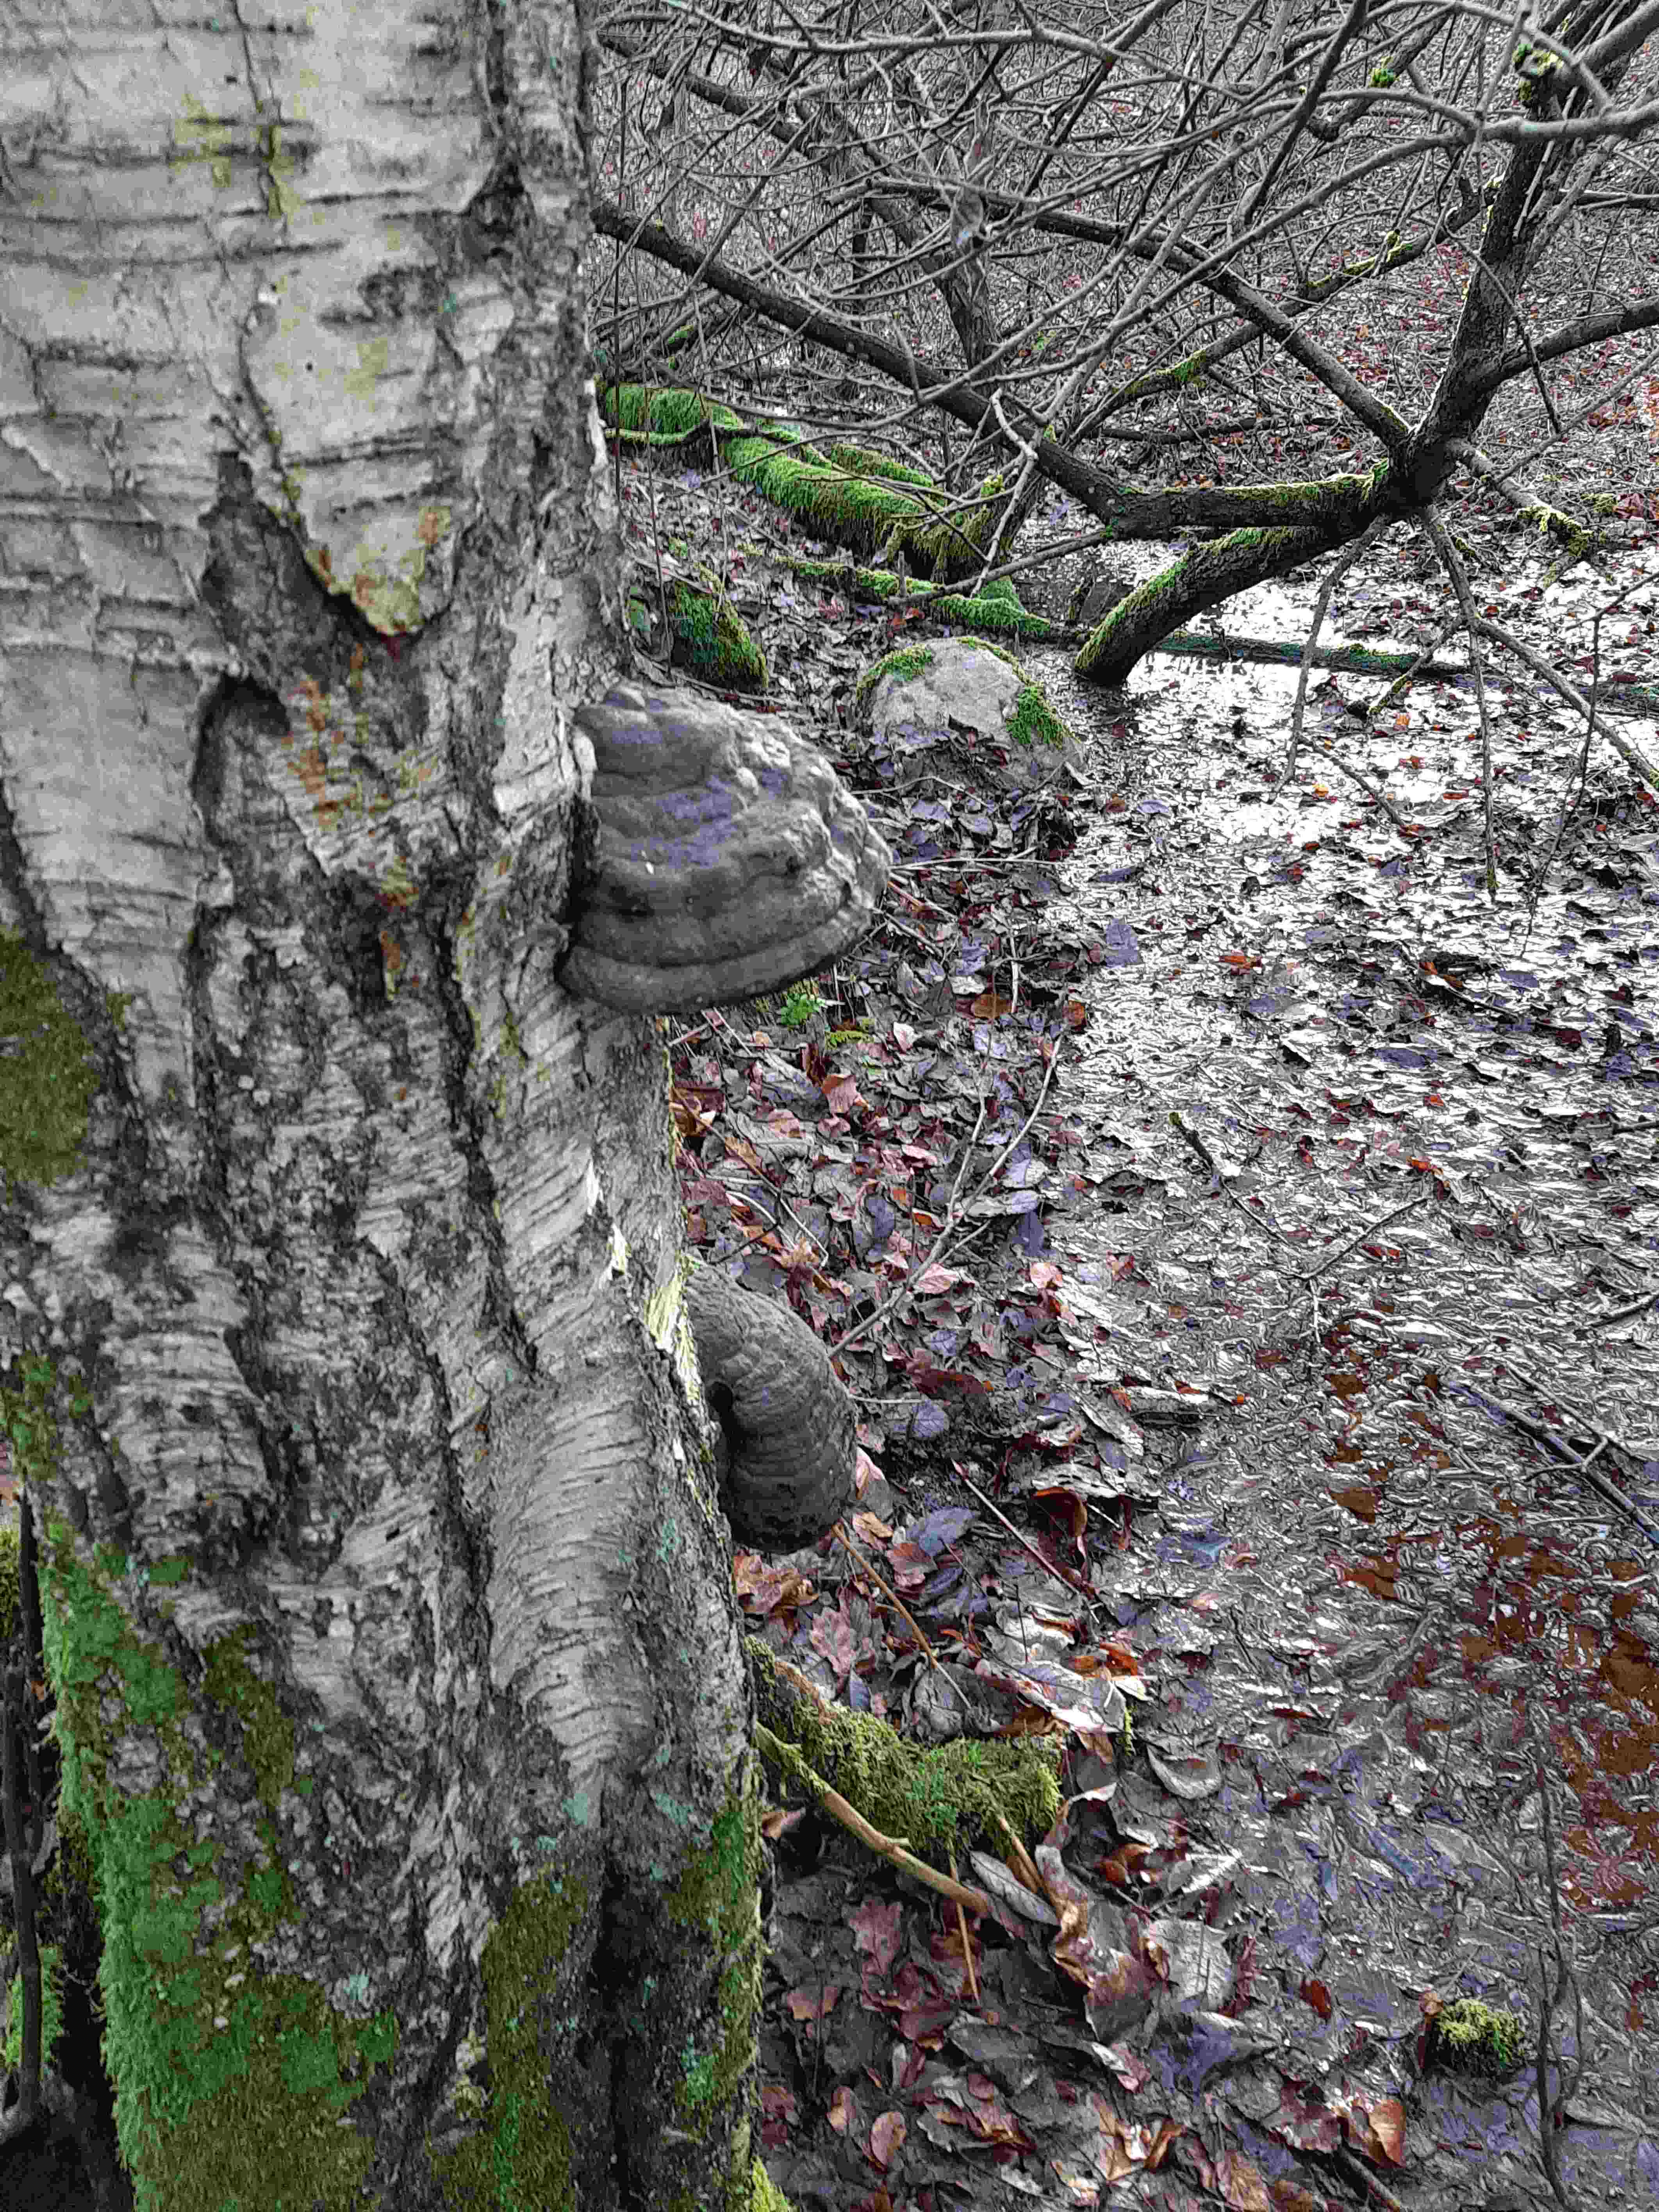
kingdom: Fungi
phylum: Basidiomycota
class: Agaricomycetes
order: Polyporales
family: Polyporaceae
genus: Fomes
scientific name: Fomes fomentarius
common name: tøndersvamp
